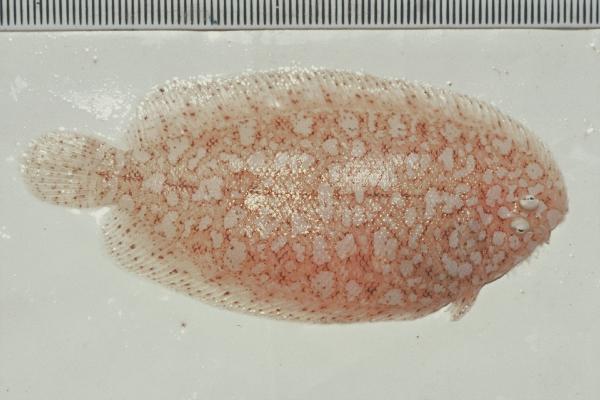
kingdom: Animalia
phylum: Chordata
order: Pleuronectiformes
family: Soleidae
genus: Aseraggodes
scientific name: Aseraggodes diringeri
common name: Diringer's sole
